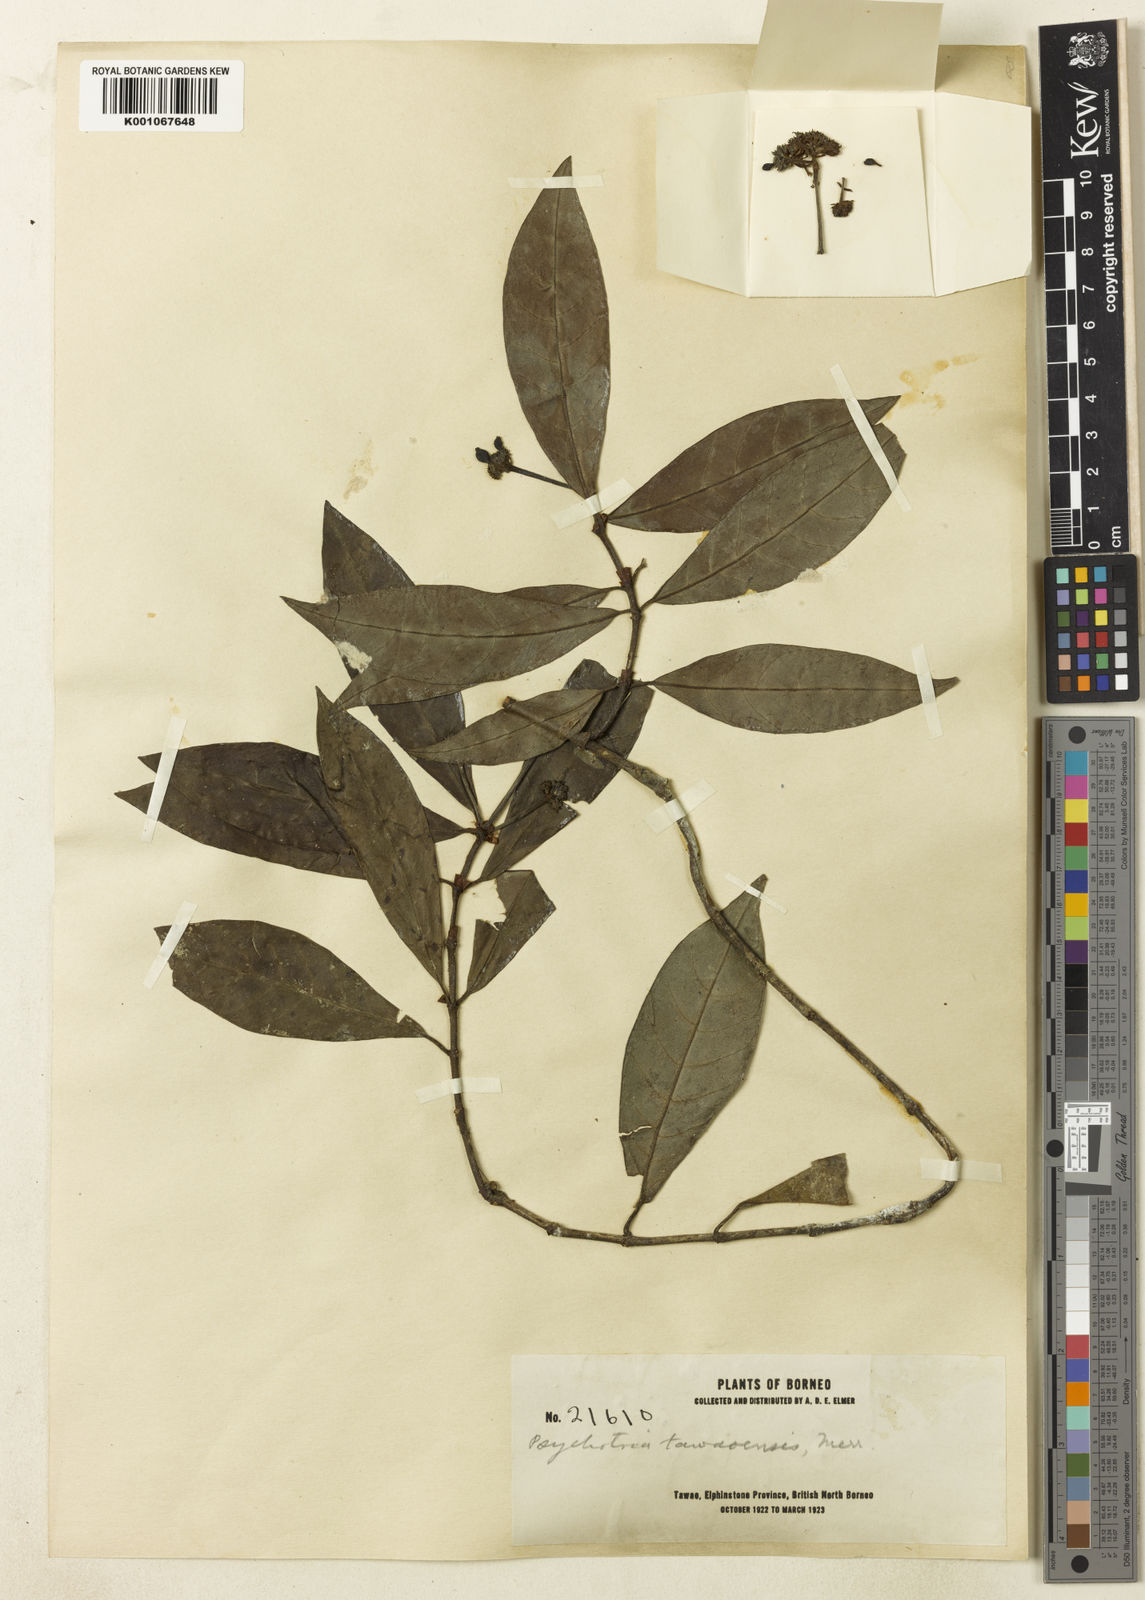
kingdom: Plantae
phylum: Tracheophyta
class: Magnoliopsida
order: Gentianales
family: Rubiaceae
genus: Psychotria
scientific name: Psychotria tawaensis
